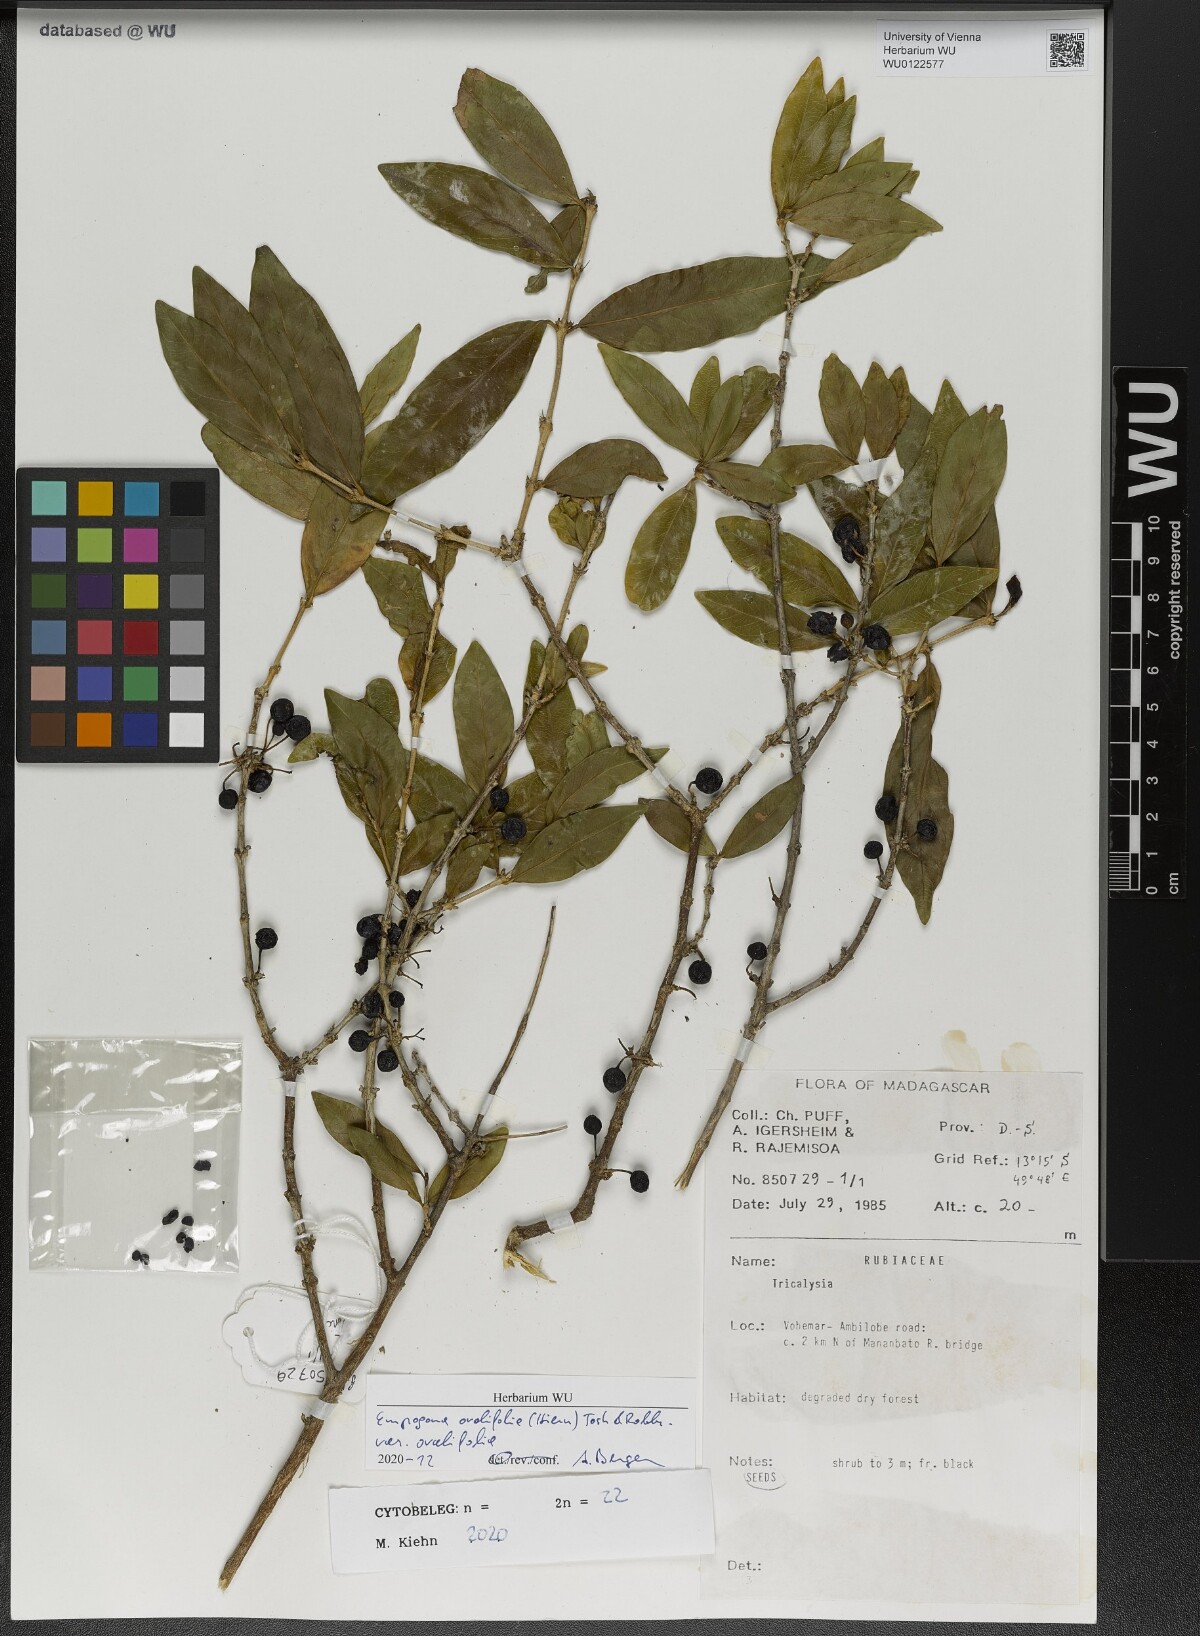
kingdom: Plantae
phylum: Tracheophyta
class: Magnoliopsida
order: Gentianales
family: Rubiaceae
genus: Empogona
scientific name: Empogona ovalifolia
